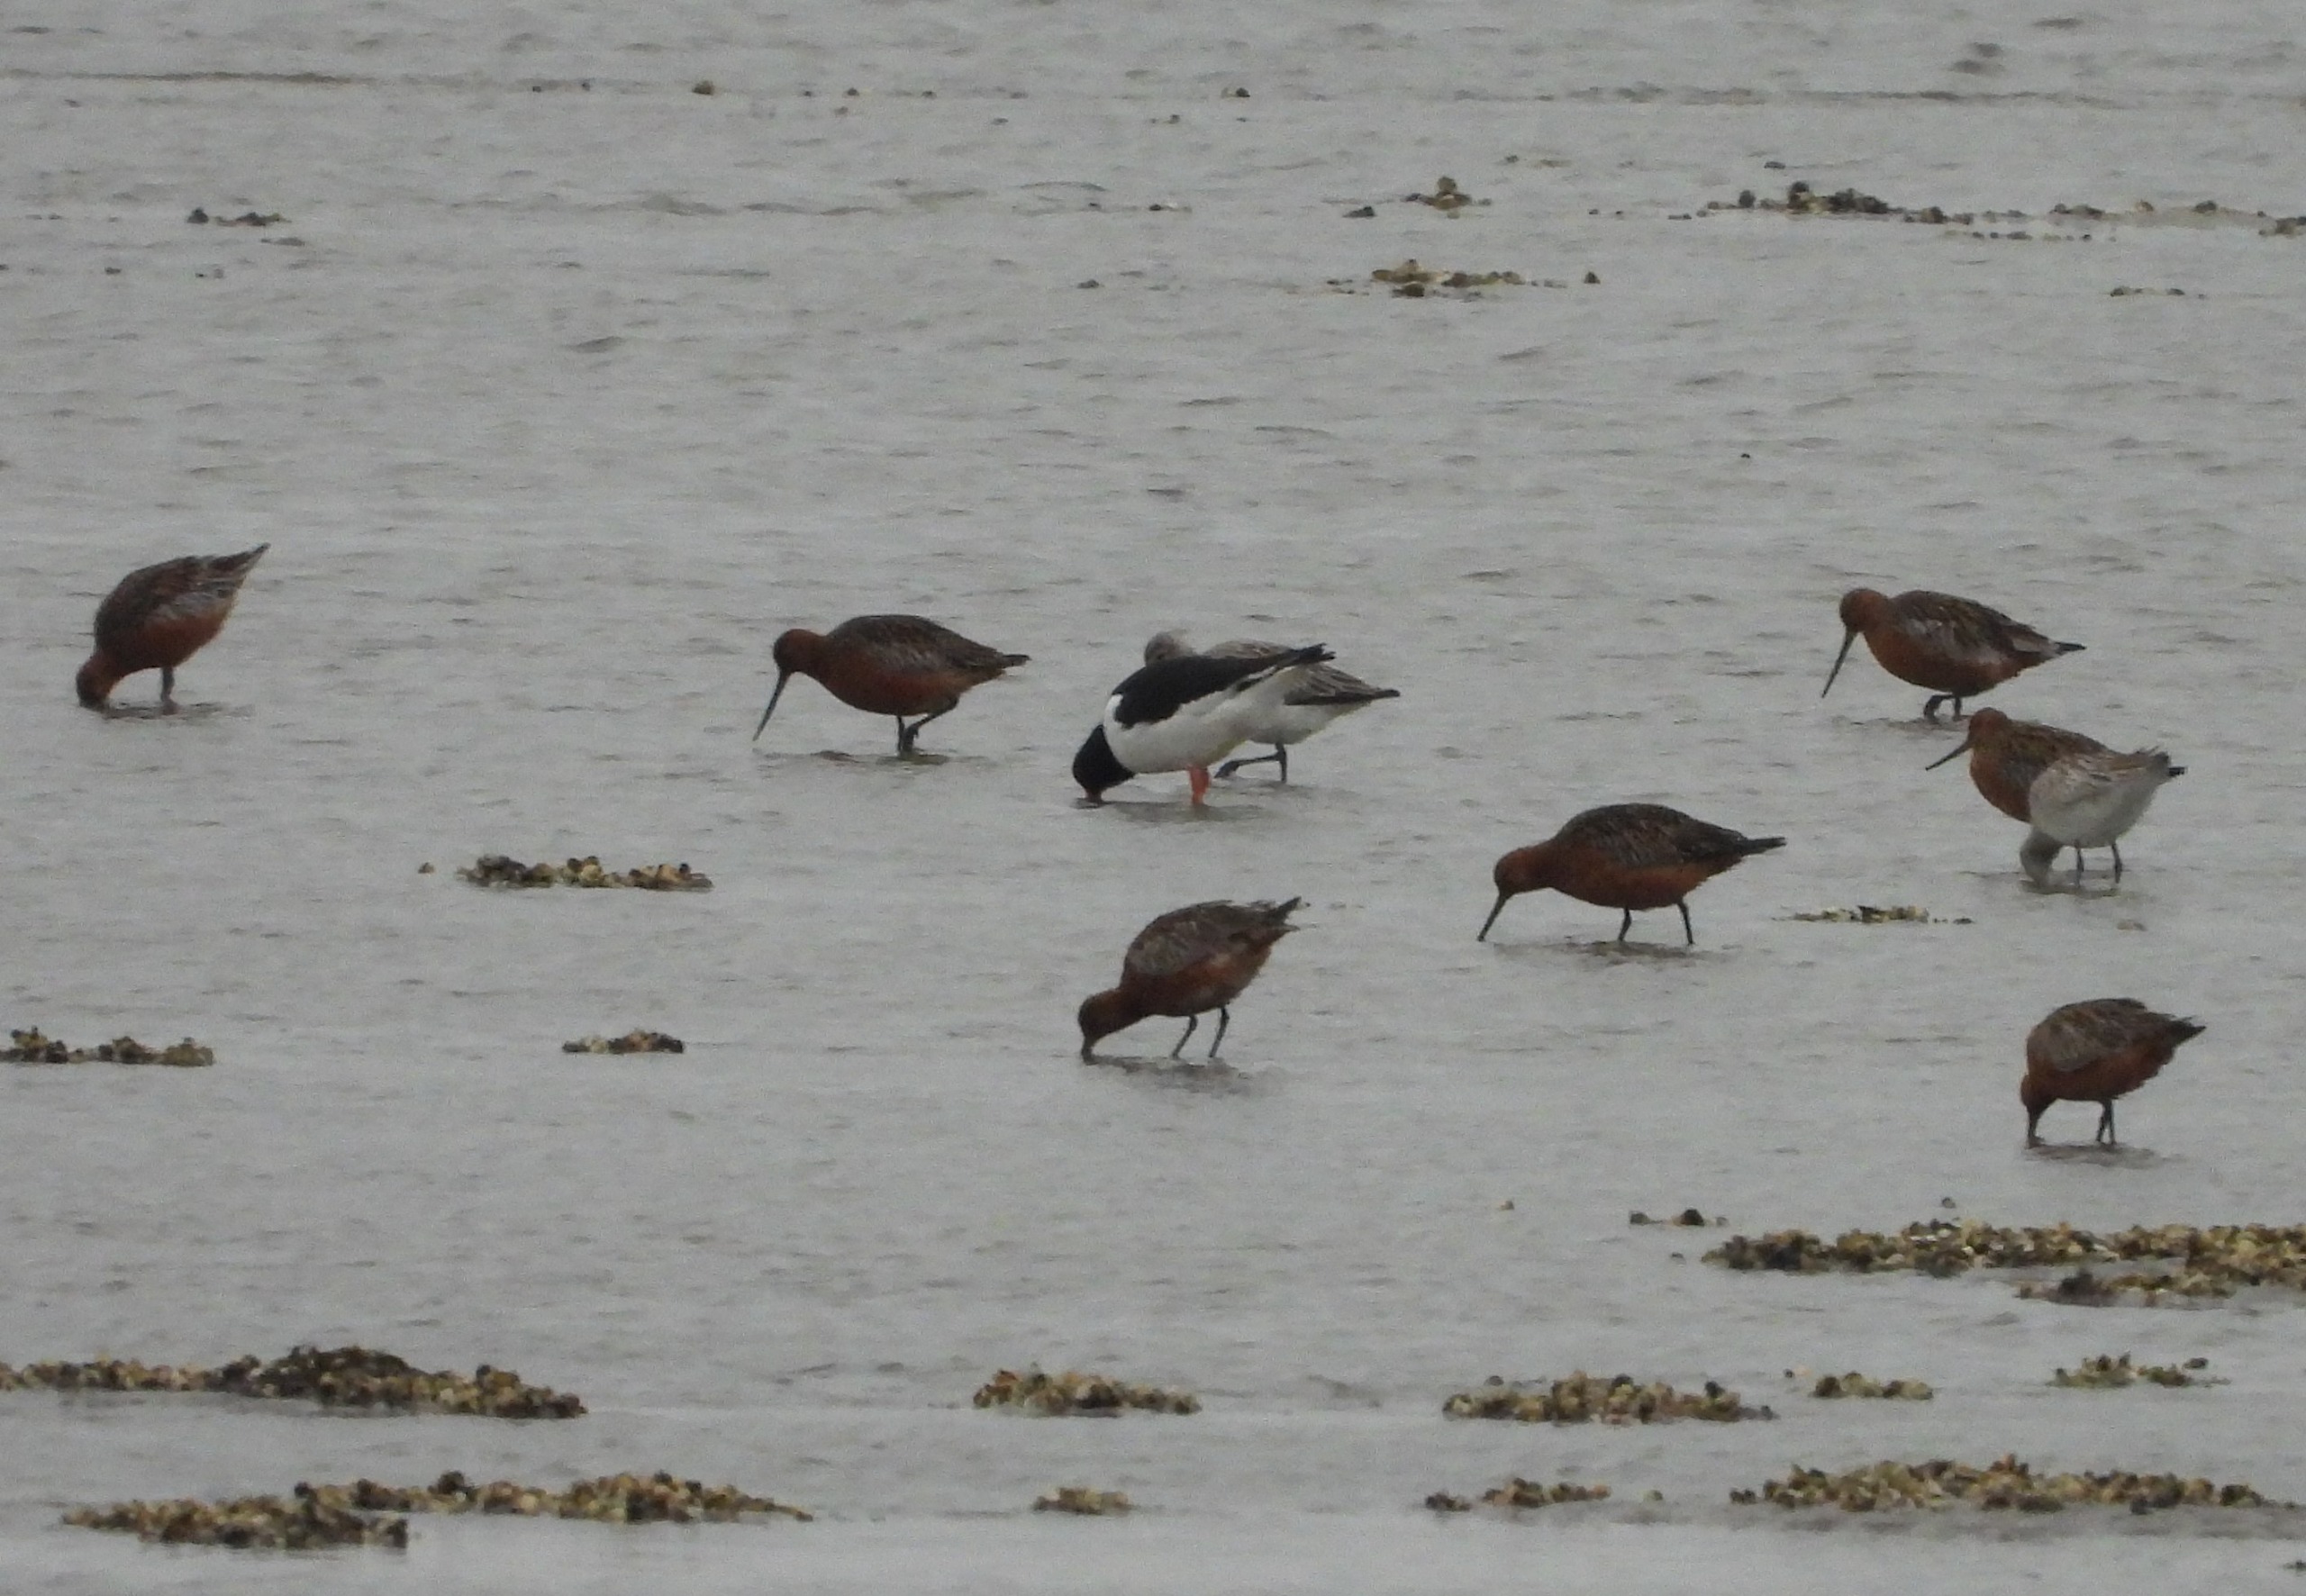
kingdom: Animalia
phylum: Chordata
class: Aves
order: Charadriiformes
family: Scolopacidae
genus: Limosa
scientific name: Limosa lapponica
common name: Lille kobbersneppe
